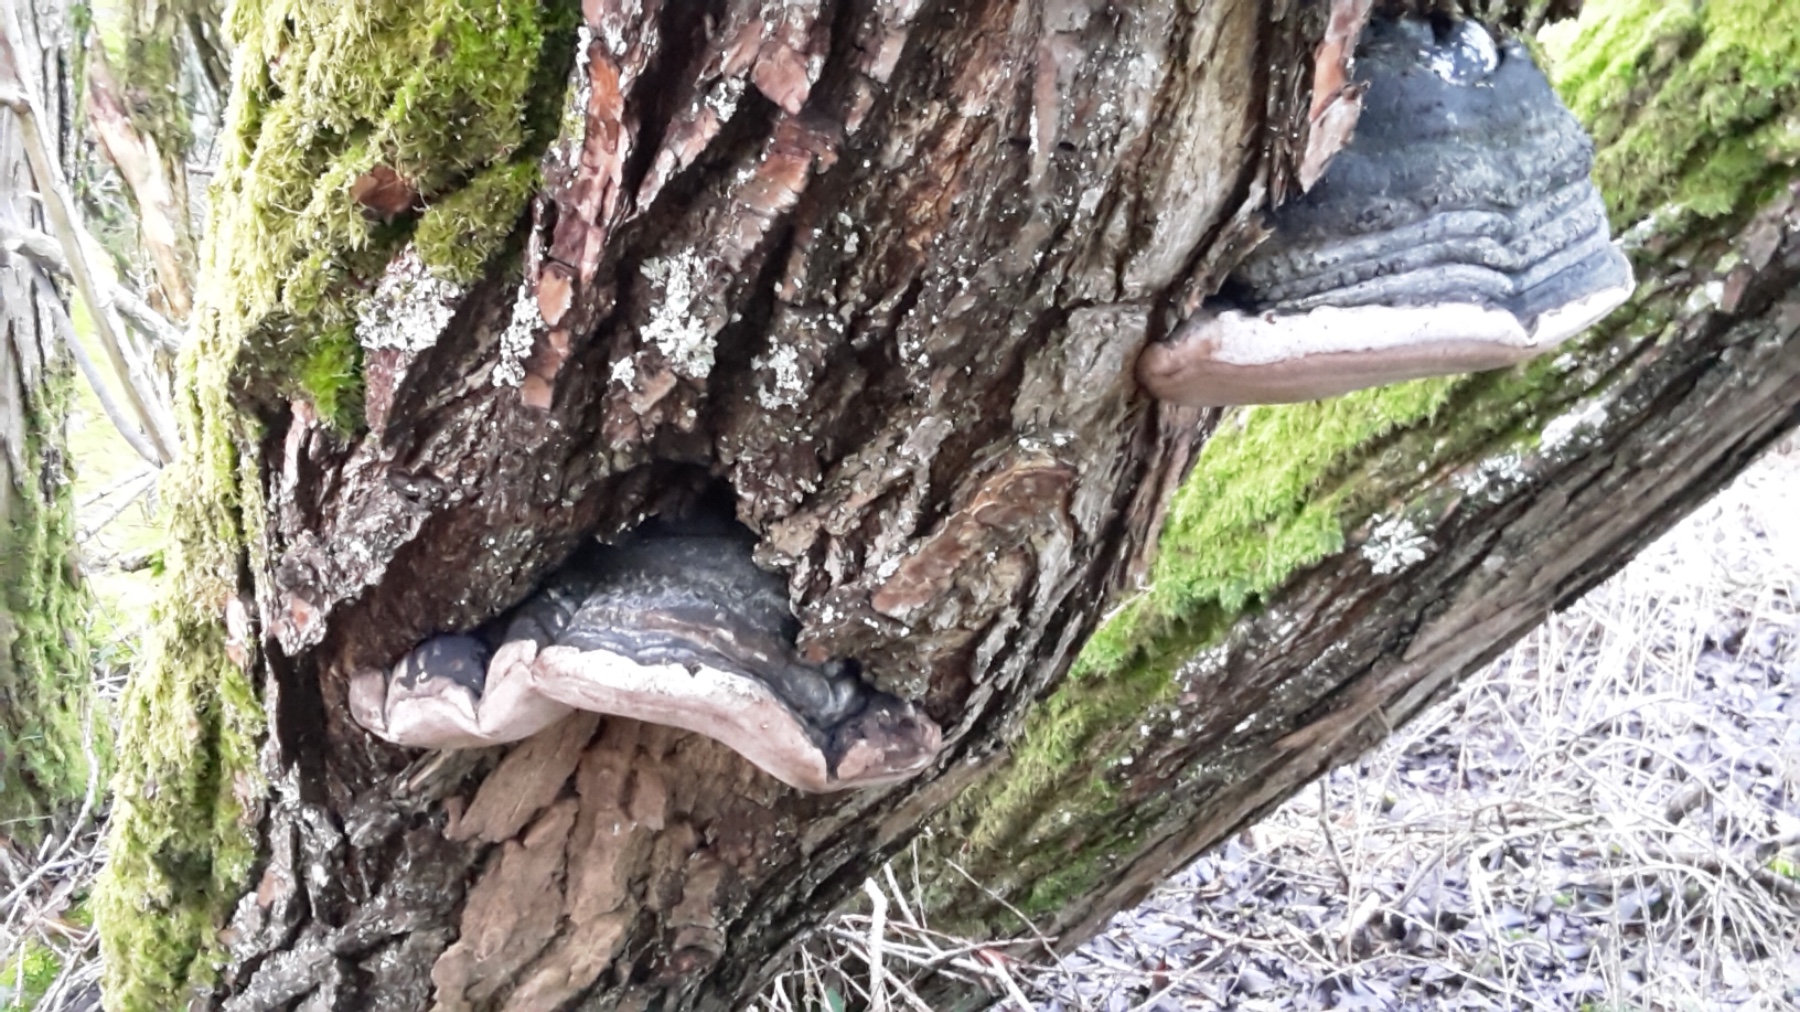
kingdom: Fungi
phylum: Basidiomycota
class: Agaricomycetes
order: Hymenochaetales
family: Hymenochaetaceae
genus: Phellinus
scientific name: Phellinus igniarius
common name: almindelig ildporesvamp
